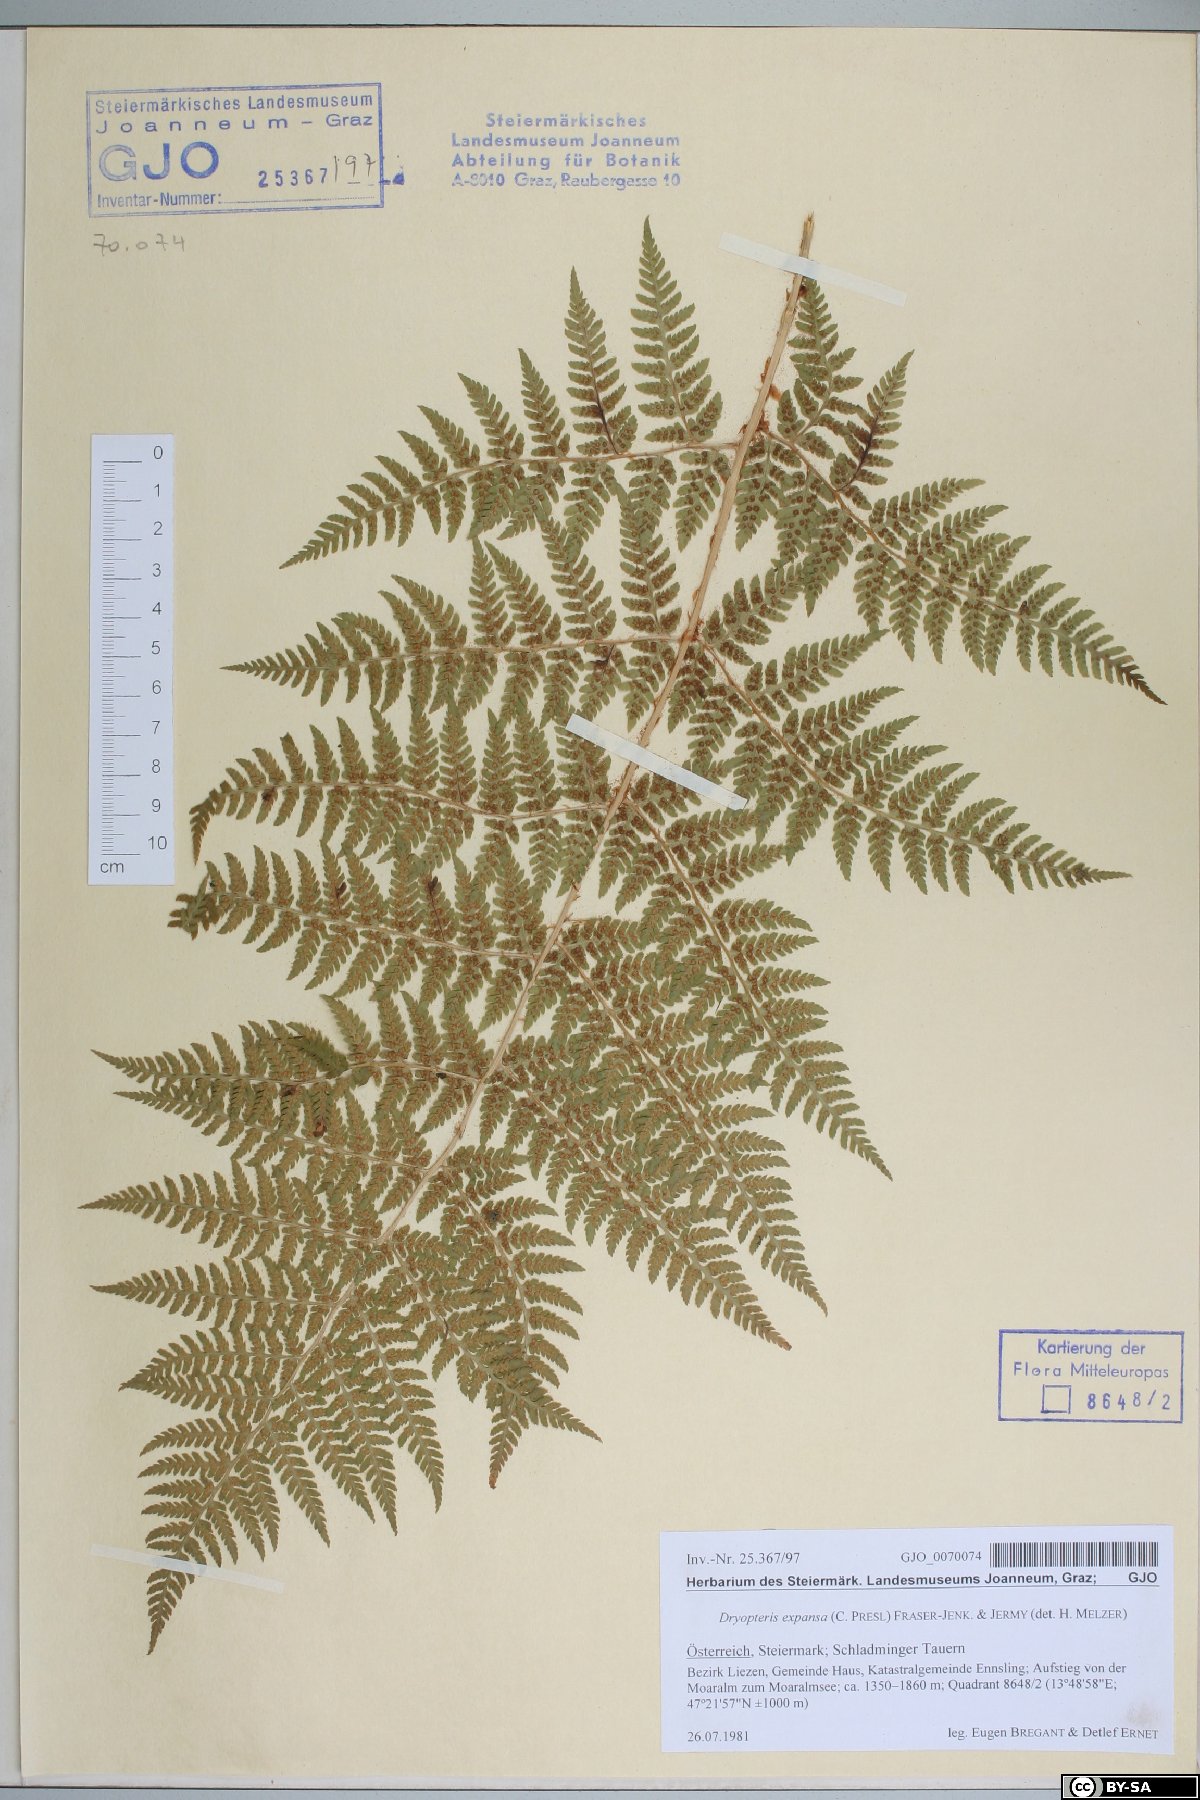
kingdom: Plantae
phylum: Tracheophyta
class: Polypodiopsida
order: Polypodiales
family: Dryopteridaceae
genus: Dryopteris
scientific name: Dryopteris expansa
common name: Northern buckler fern
